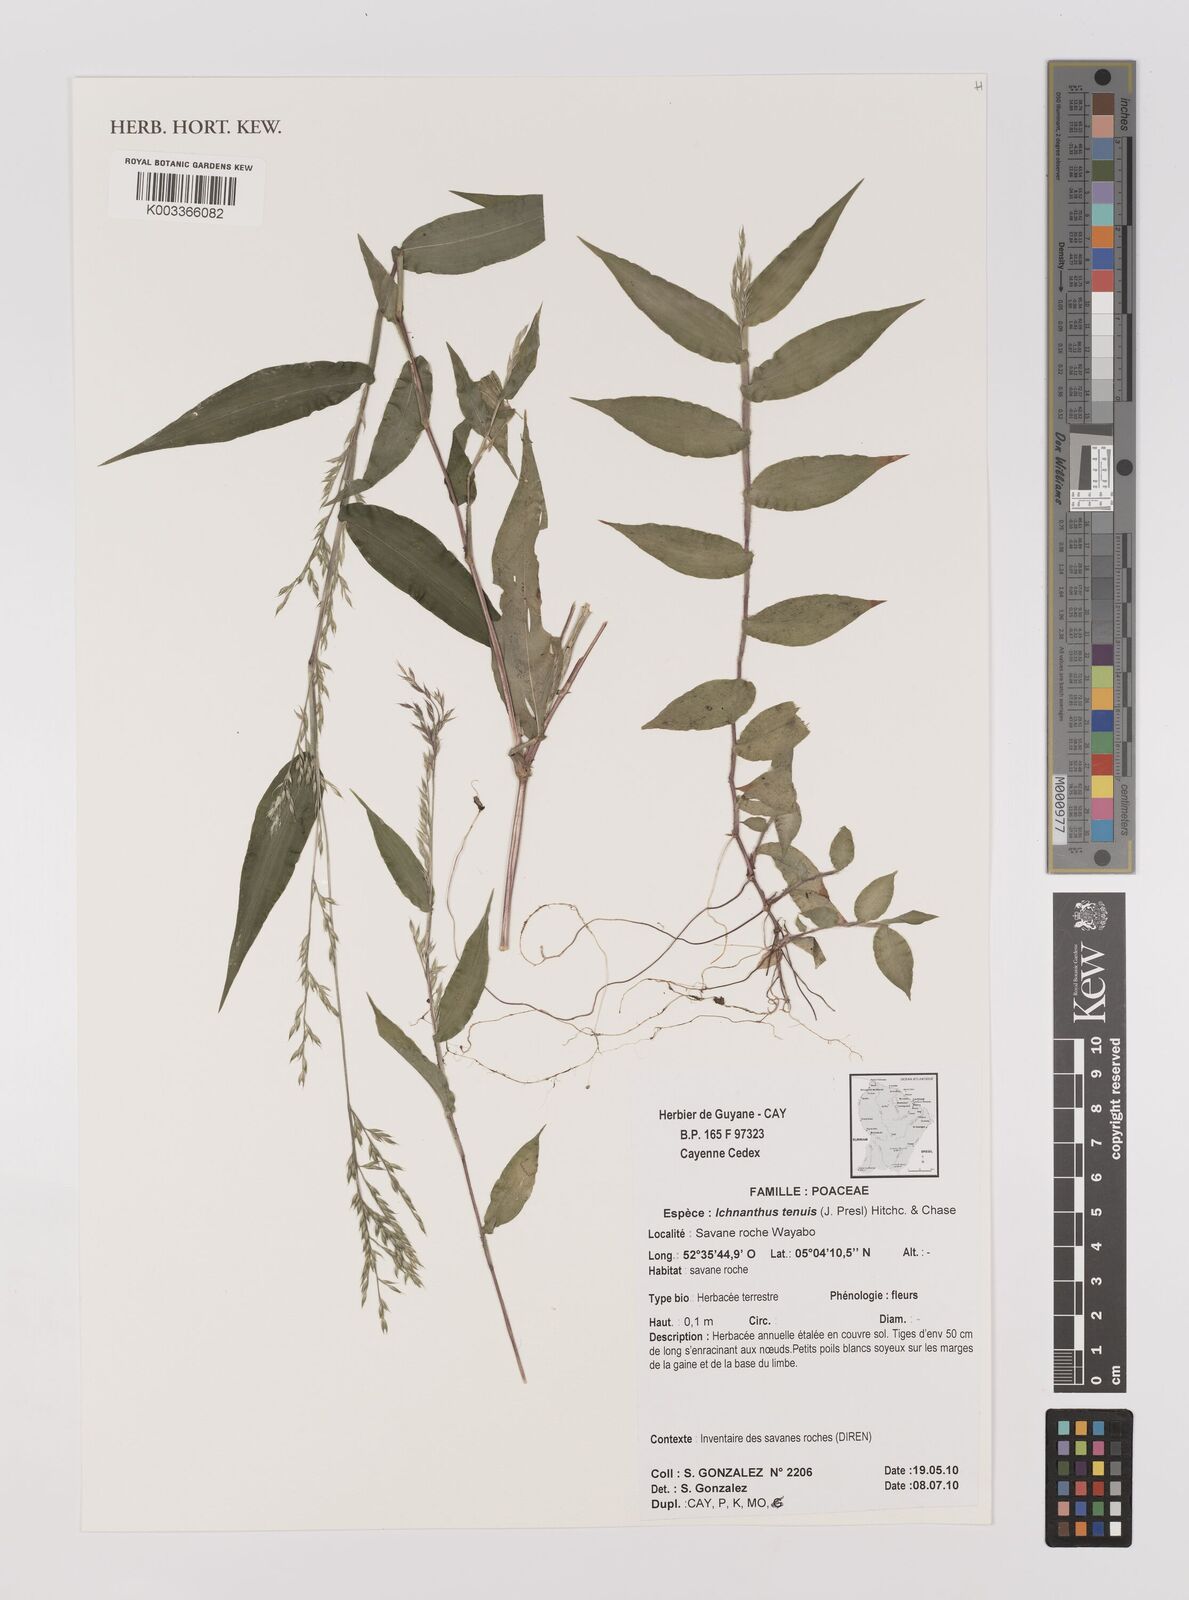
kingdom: Plantae
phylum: Tracheophyta
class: Liliopsida
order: Poales
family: Poaceae
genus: Ichnanthus
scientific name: Ichnanthus tenuis
